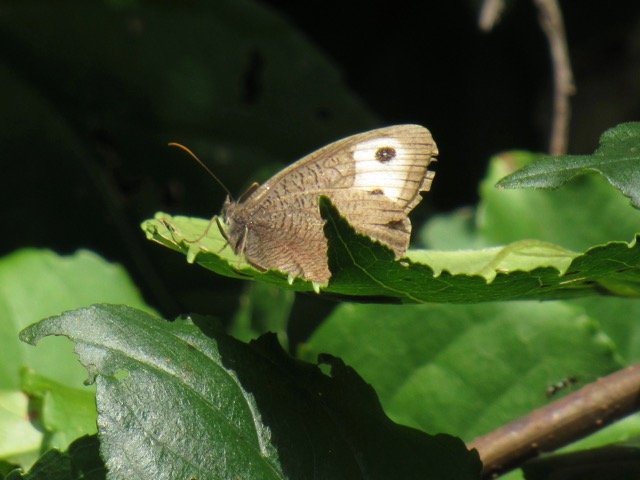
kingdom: Animalia
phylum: Arthropoda
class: Insecta
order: Lepidoptera
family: Nymphalidae
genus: Cercyonis
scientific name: Cercyonis pegala
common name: Common Wood-Nymph
